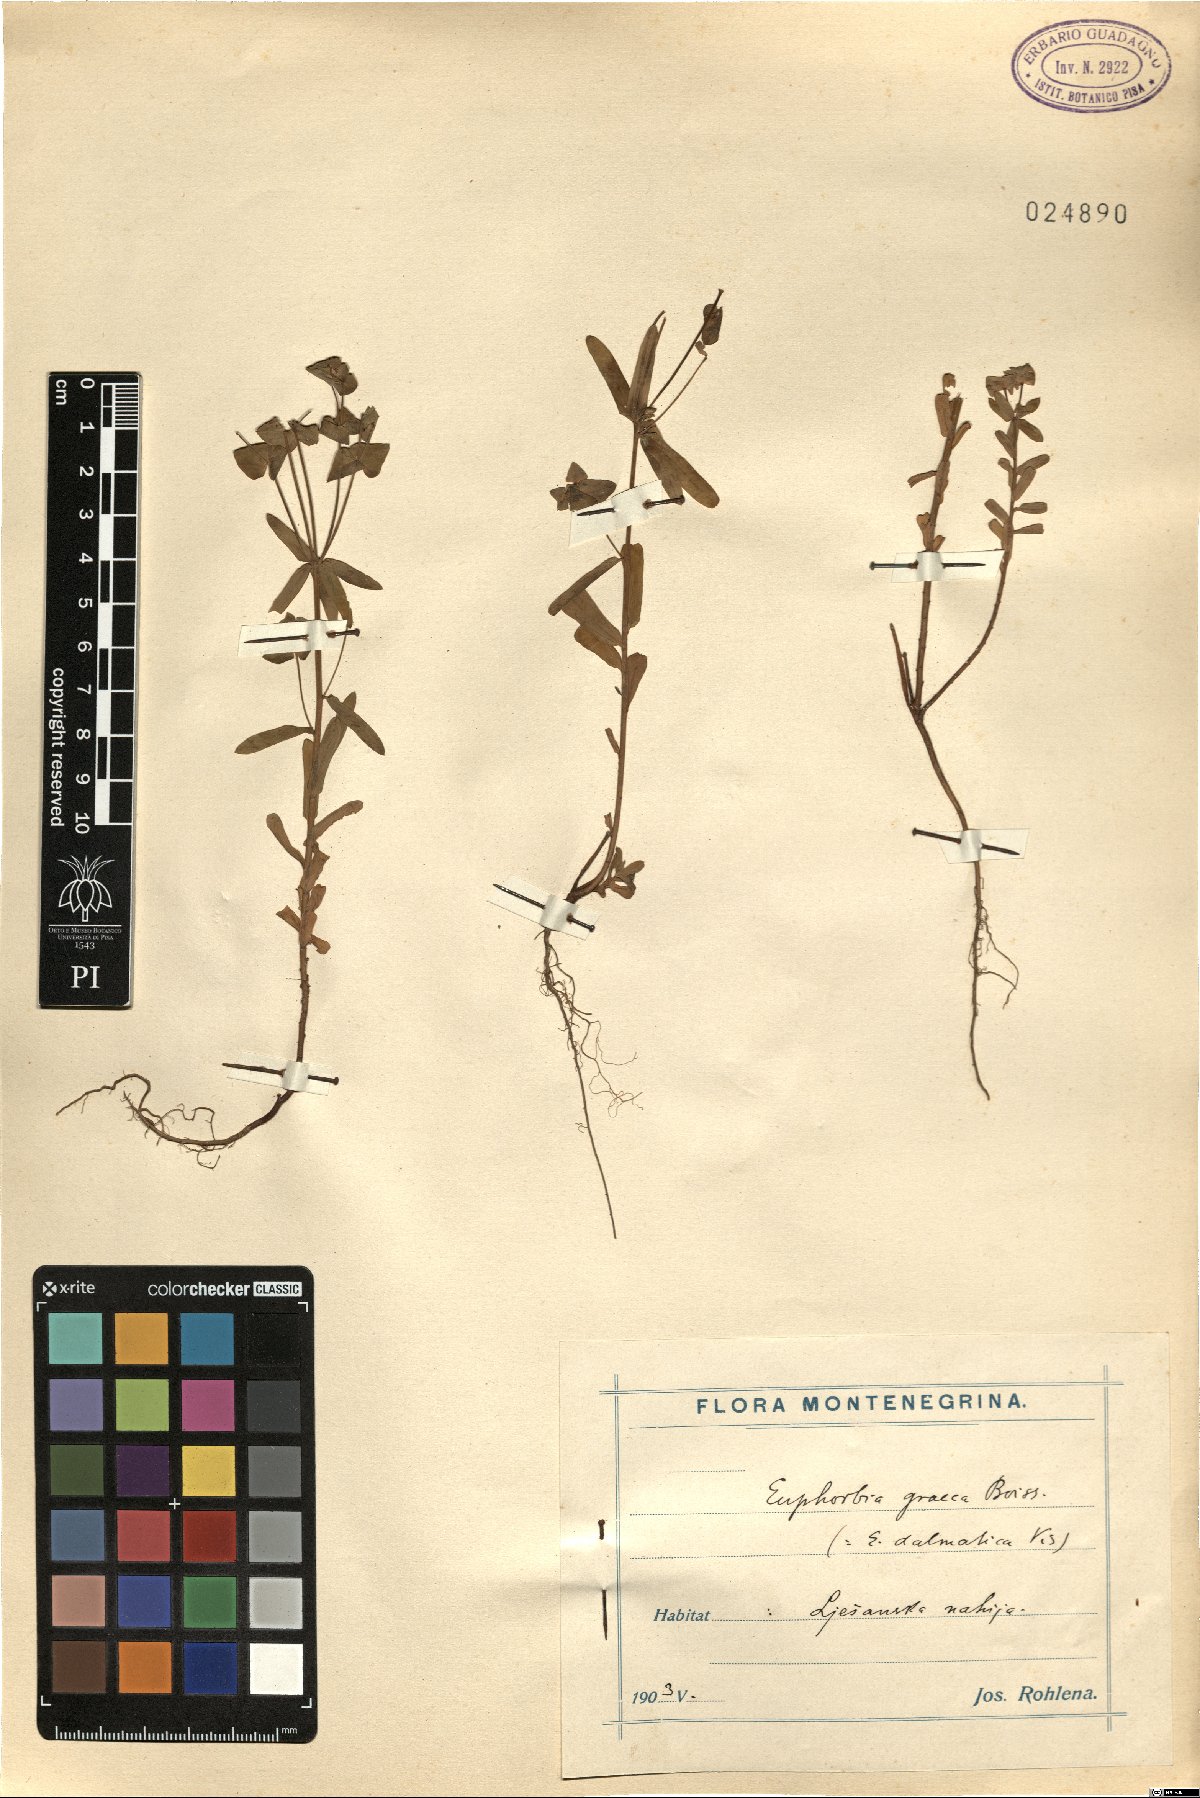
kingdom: Plantae
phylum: Tracheophyta
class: Magnoliopsida
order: Malpighiales
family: Euphorbiaceae
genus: Euphorbia
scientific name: Euphorbia taurinensis
